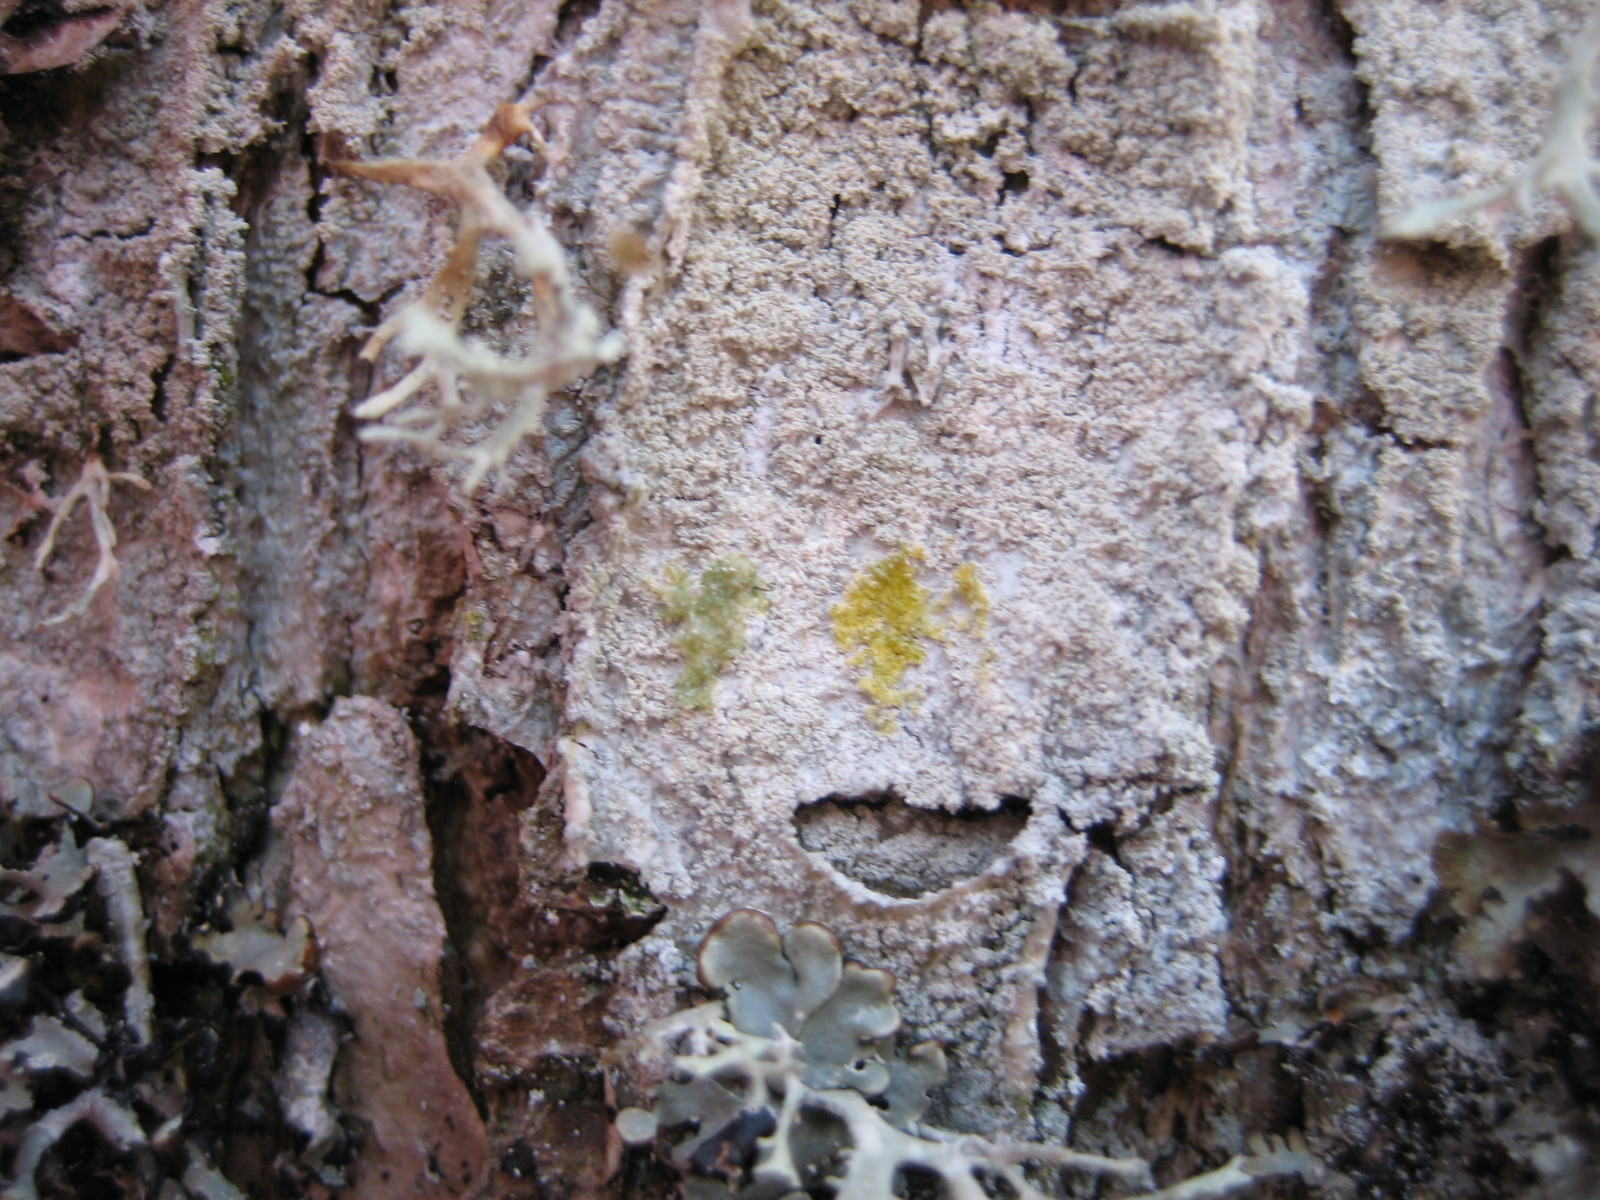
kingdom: Fungi
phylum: Ascomycota
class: Lecanoromycetes
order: Pertusariales
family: Ochrolechiaceae
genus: Ochrolechia
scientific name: Ochrolechia microstictoides
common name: udbredt blegskivelav
